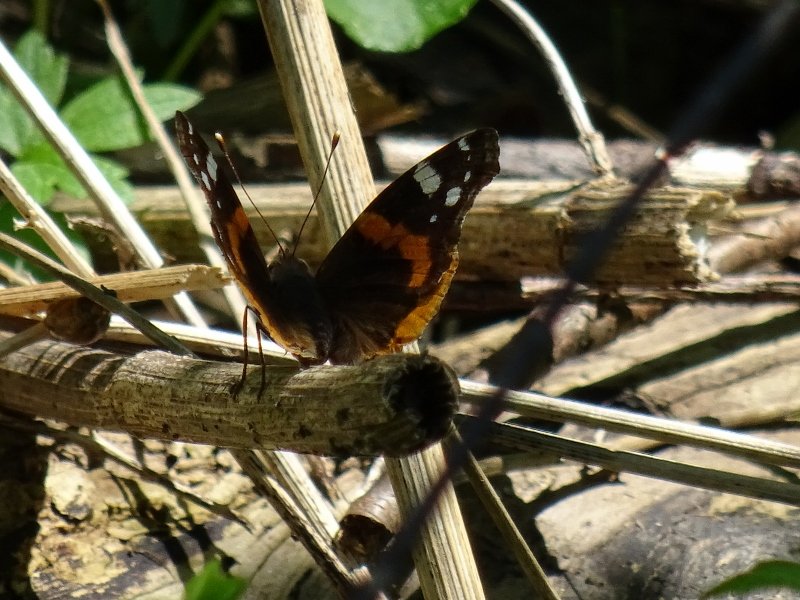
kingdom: Animalia
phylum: Arthropoda
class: Insecta
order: Lepidoptera
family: Nymphalidae
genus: Vanessa
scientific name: Vanessa atalanta
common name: Red Admiral
